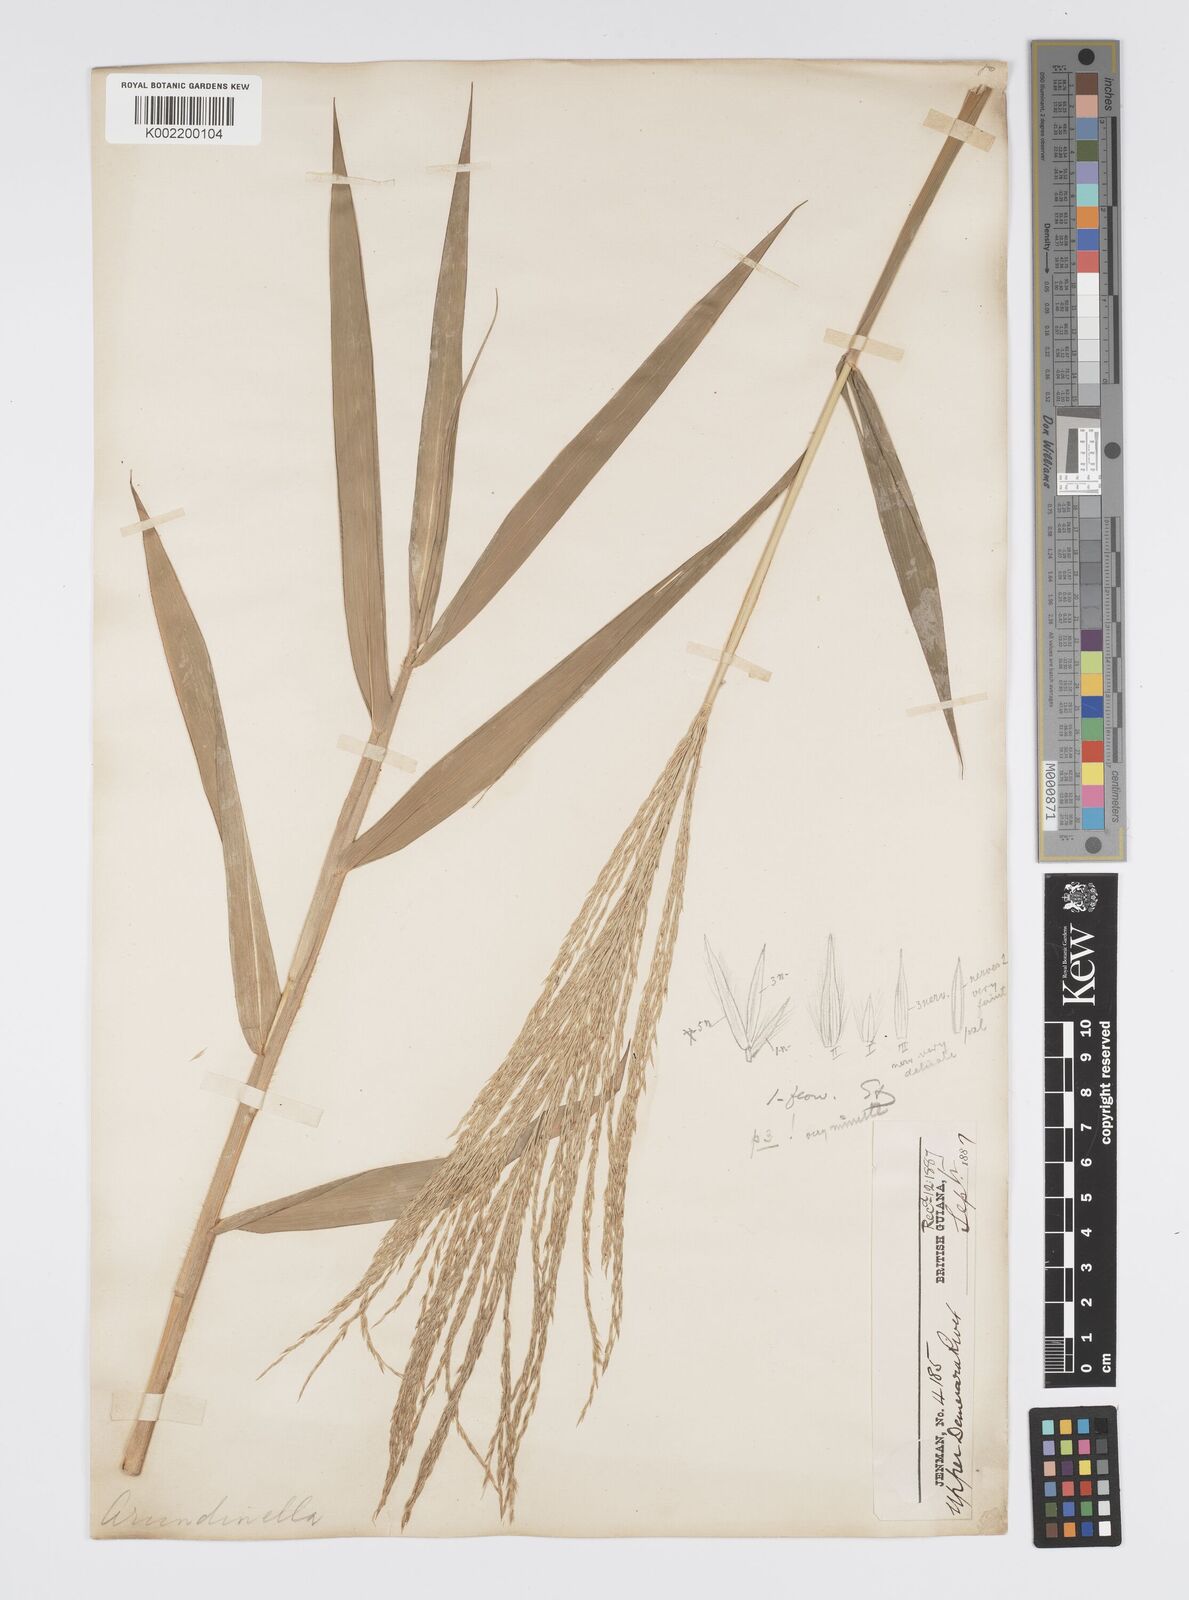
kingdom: Plantae
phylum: Tracheophyta
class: Liliopsida
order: Poales
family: Poaceae
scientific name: Poaceae
